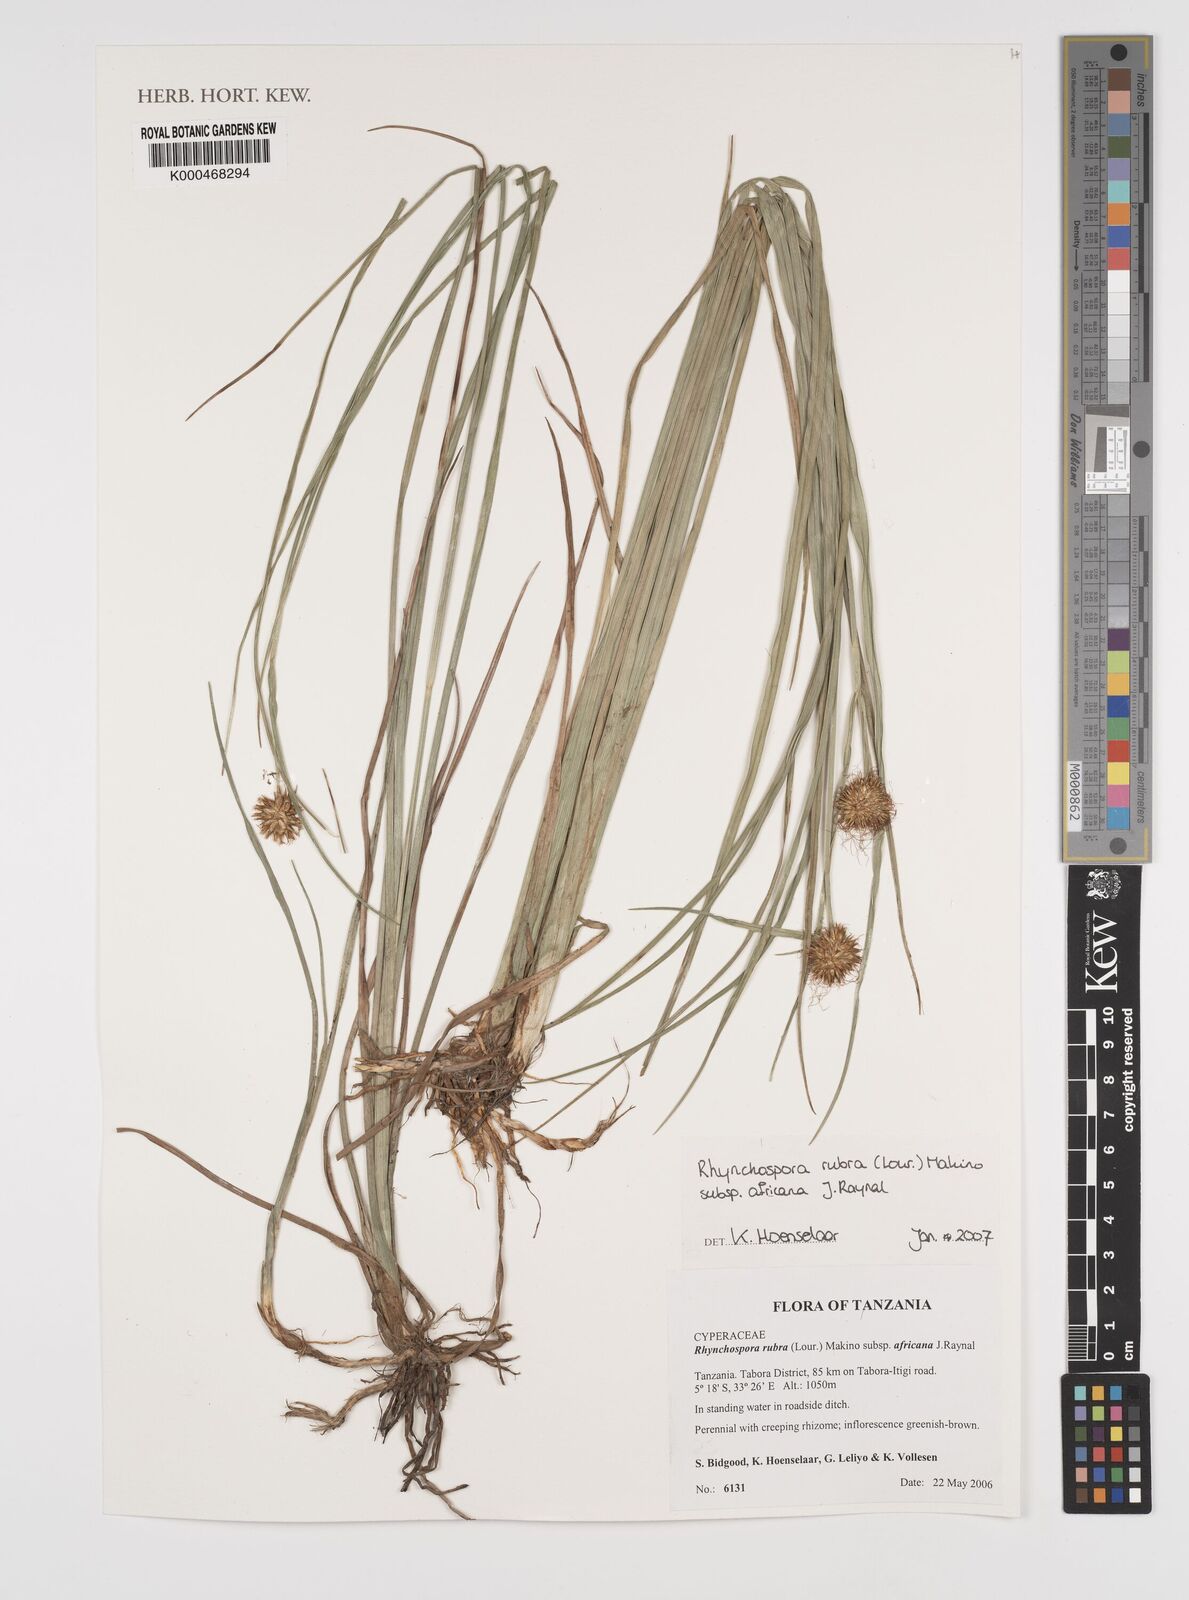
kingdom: Plantae
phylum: Tracheophyta
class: Liliopsida
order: Poales
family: Cyperaceae
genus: Rhynchospora
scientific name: Rhynchospora rubra
